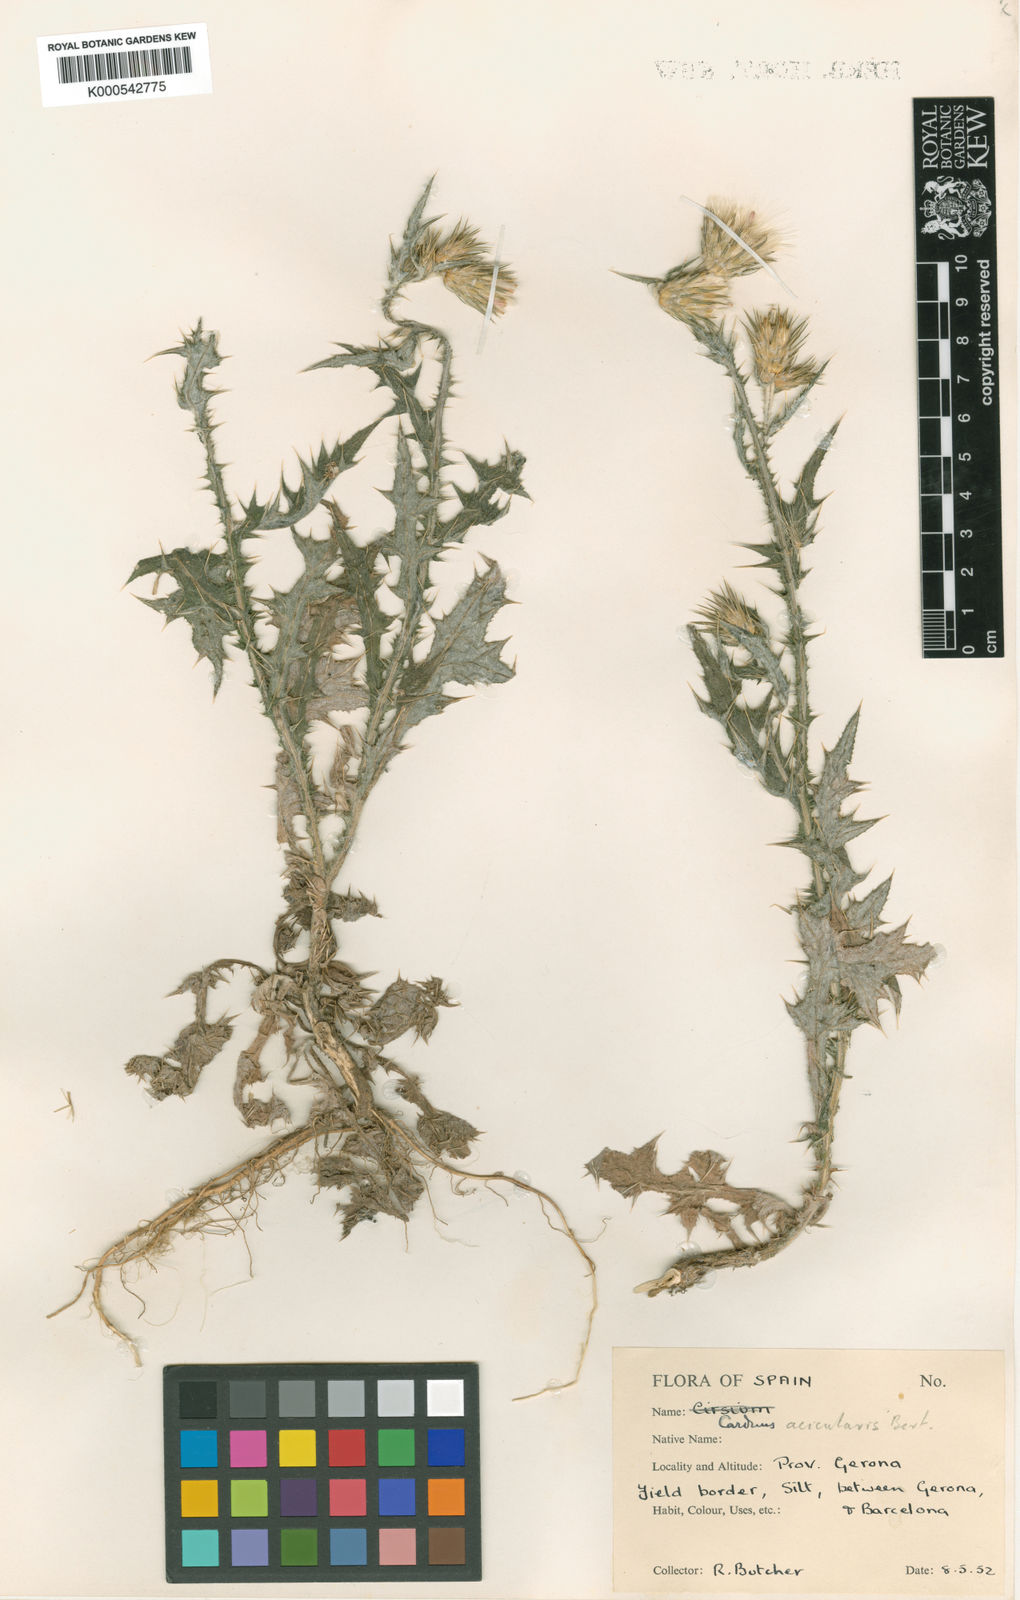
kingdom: Plantae
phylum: Tracheophyta
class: Magnoliopsida
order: Asterales
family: Asteraceae
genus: Carduus
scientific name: Carduus acicularis
